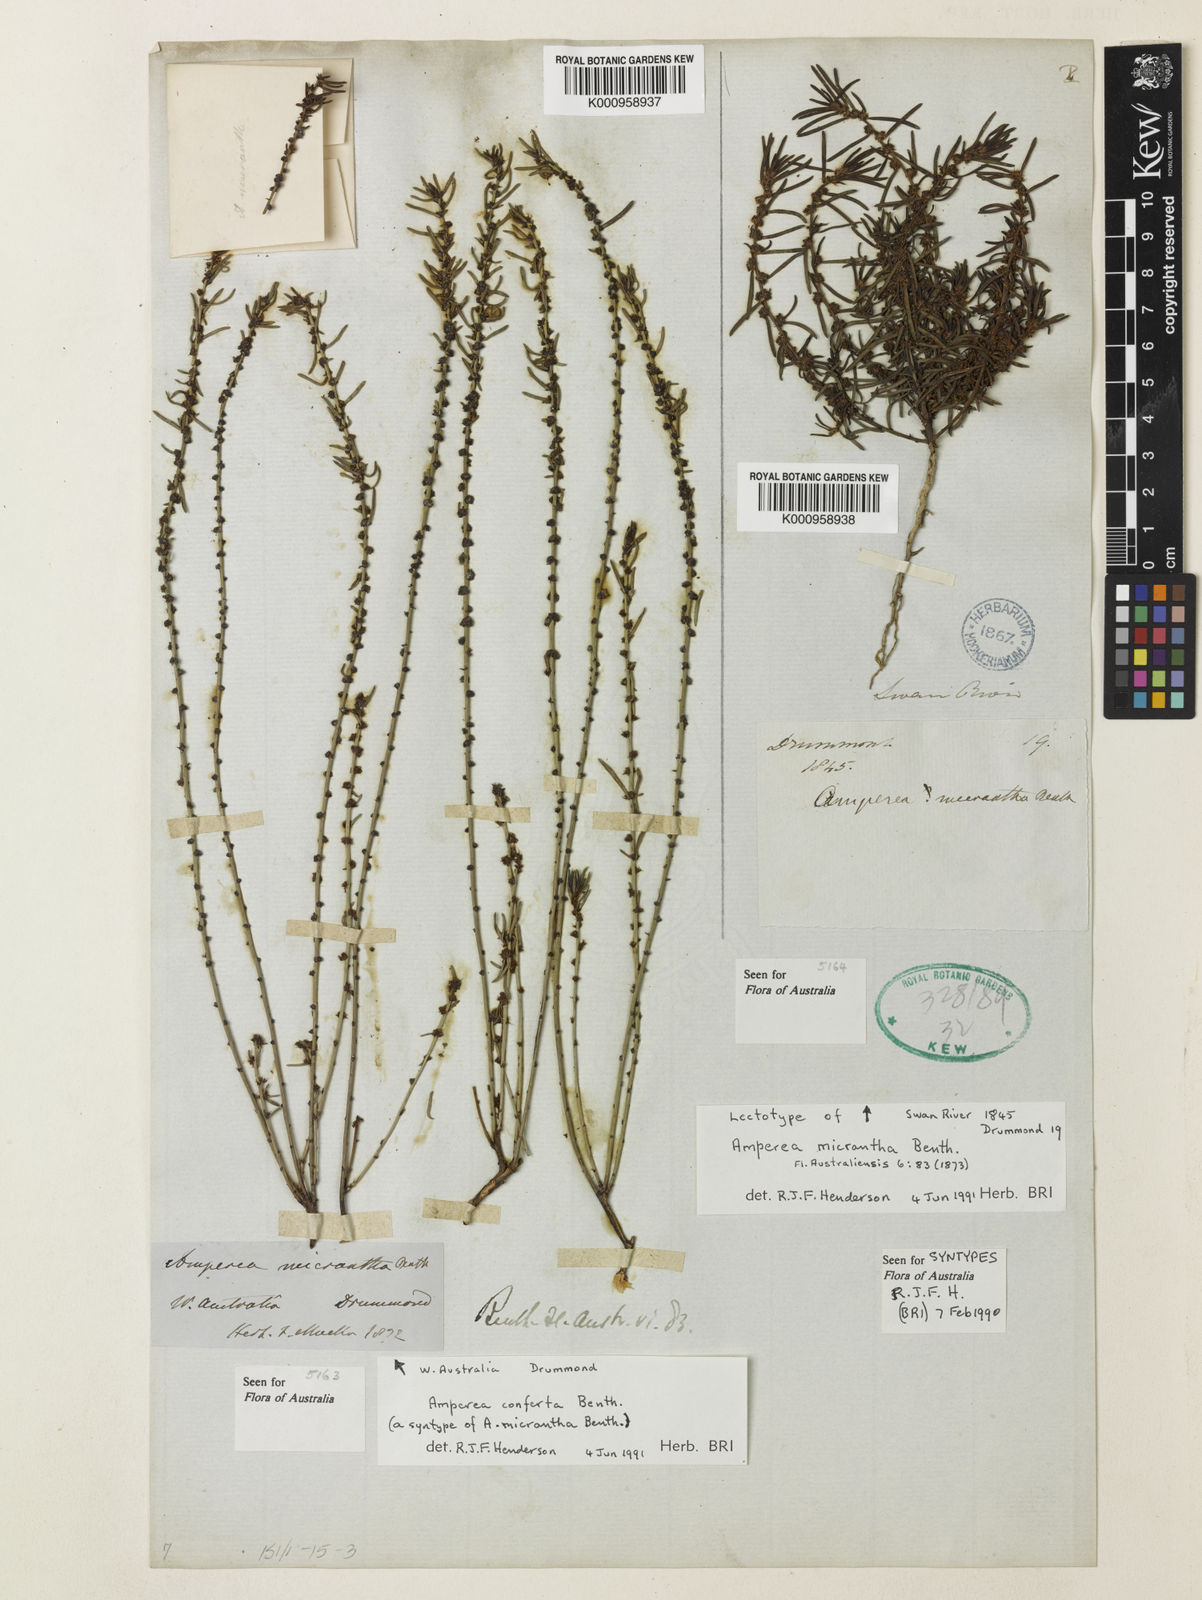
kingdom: Plantae
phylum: Tracheophyta
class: Magnoliopsida
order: Malpighiales
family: Euphorbiaceae
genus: Amperea
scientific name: Amperea micrantha
